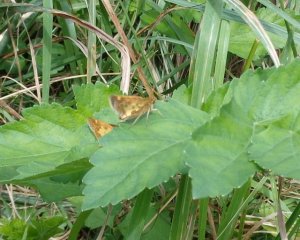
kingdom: Animalia
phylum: Arthropoda
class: Insecta
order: Lepidoptera
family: Hesperiidae
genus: Polites
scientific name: Polites coras
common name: Peck's Skipper
